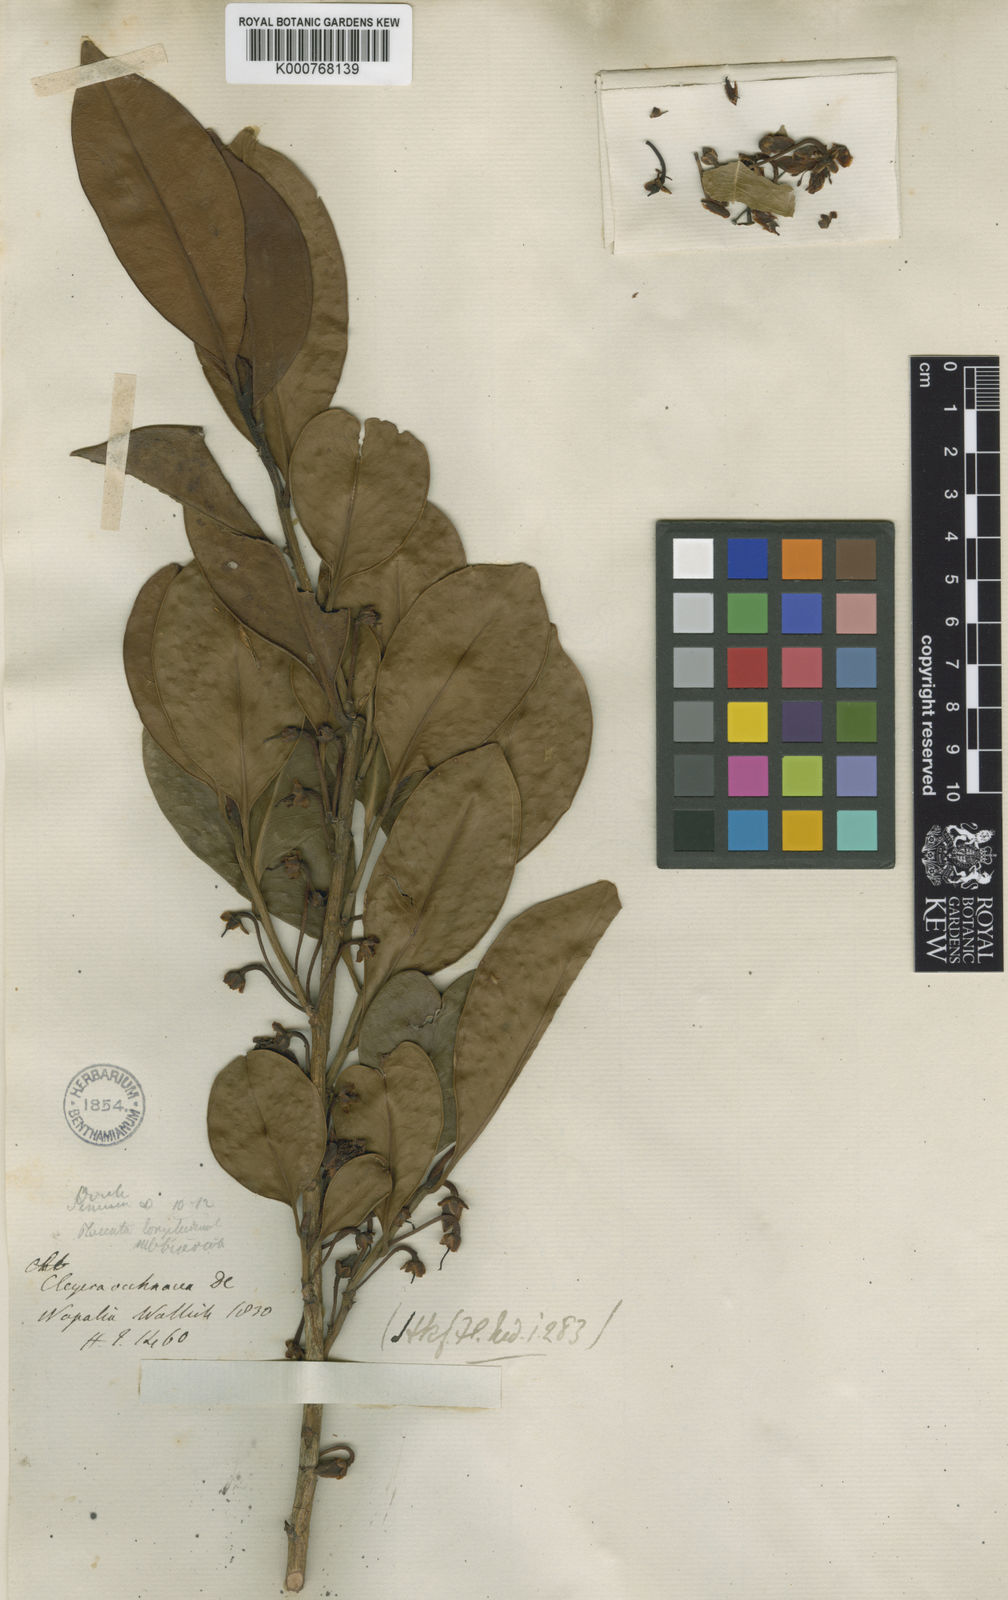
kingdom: Plantae
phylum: Tracheophyta
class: Magnoliopsida
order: Ericales
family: Pentaphylacaceae
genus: Cleyera
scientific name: Cleyera japonica
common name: Sakaki
